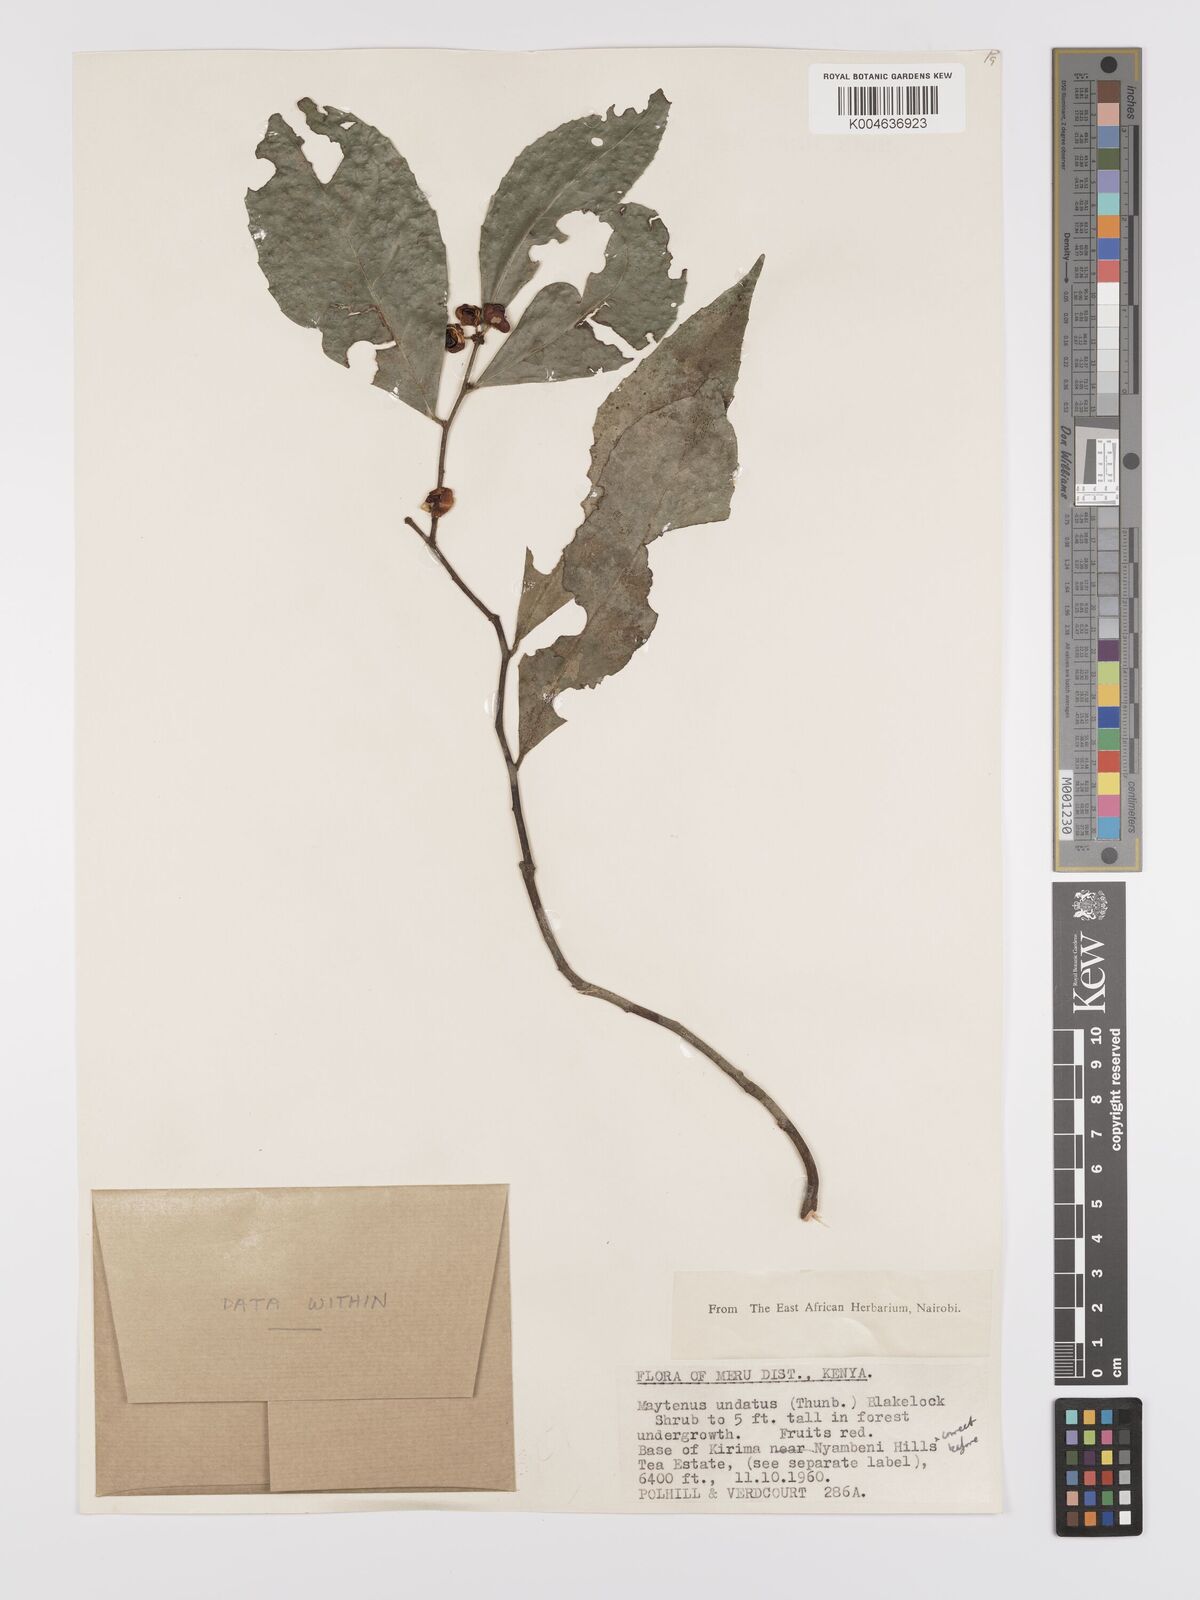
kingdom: Plantae
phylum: Tracheophyta
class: Magnoliopsida
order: Celastrales
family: Celastraceae
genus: Gymnosporia
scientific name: Gymnosporia undata
